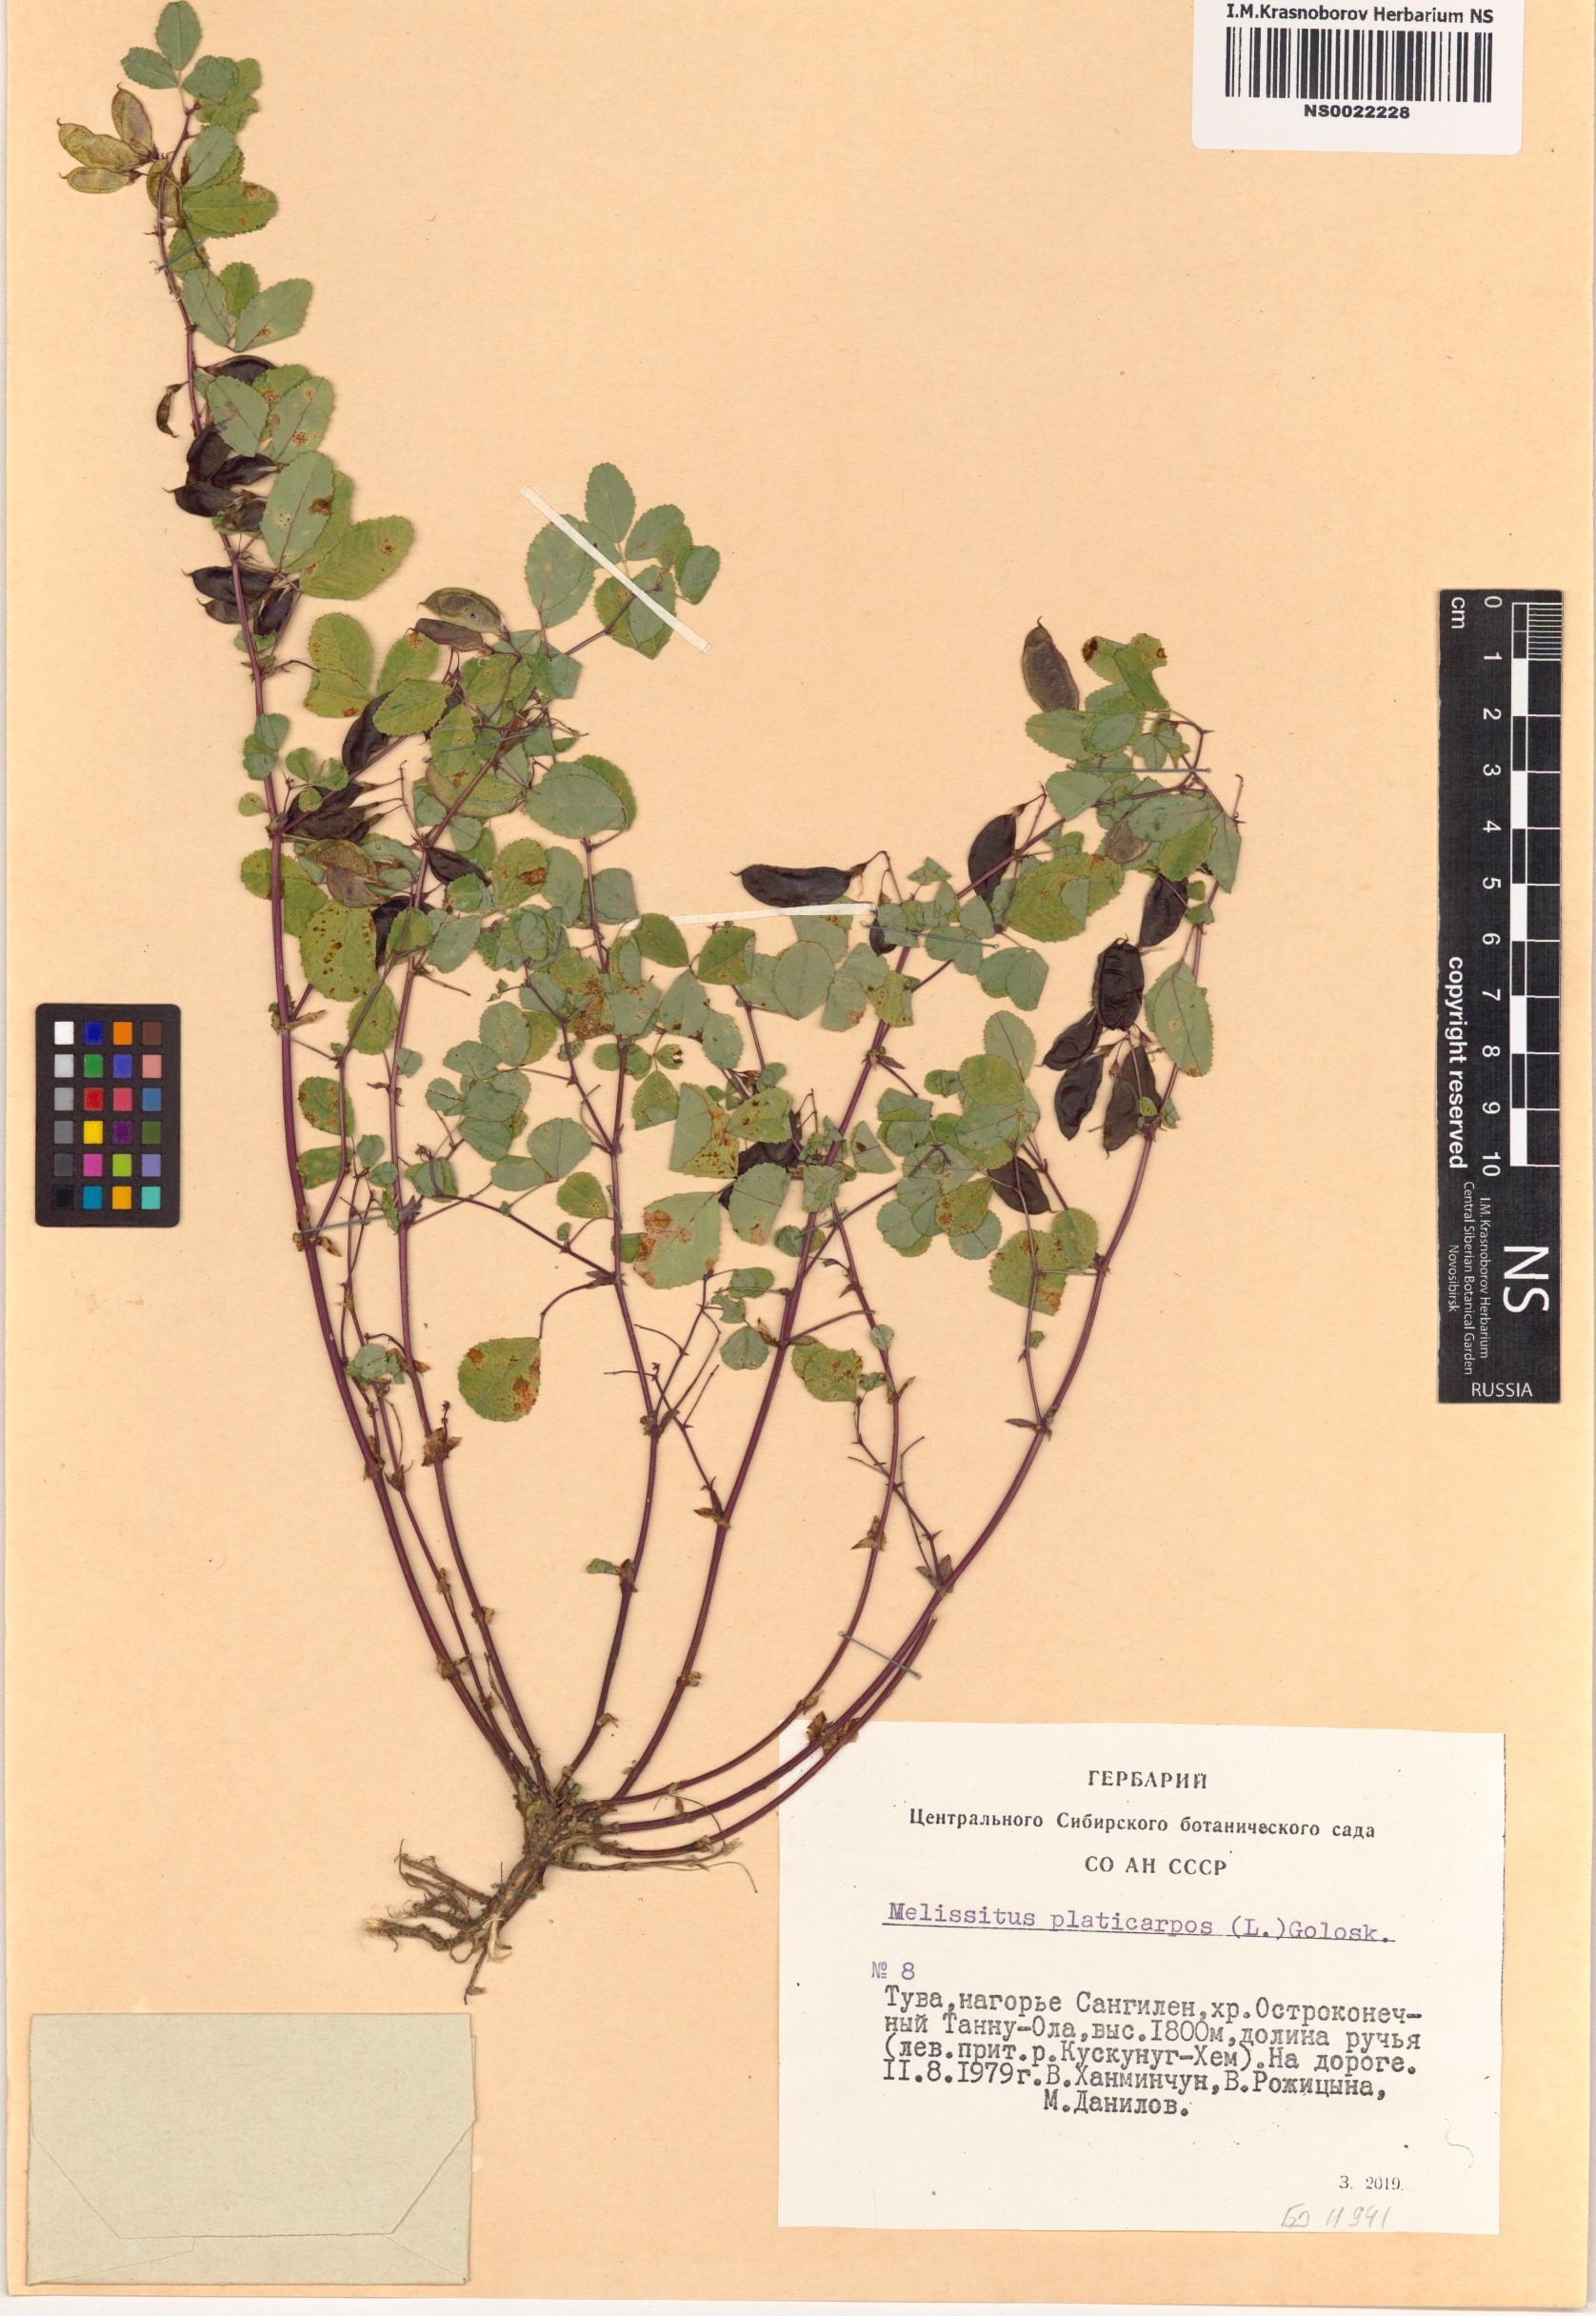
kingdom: Plantae
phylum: Tracheophyta
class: Magnoliopsida
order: Fabales
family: Fabaceae
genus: Medicago
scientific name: Medicago platycarpos
